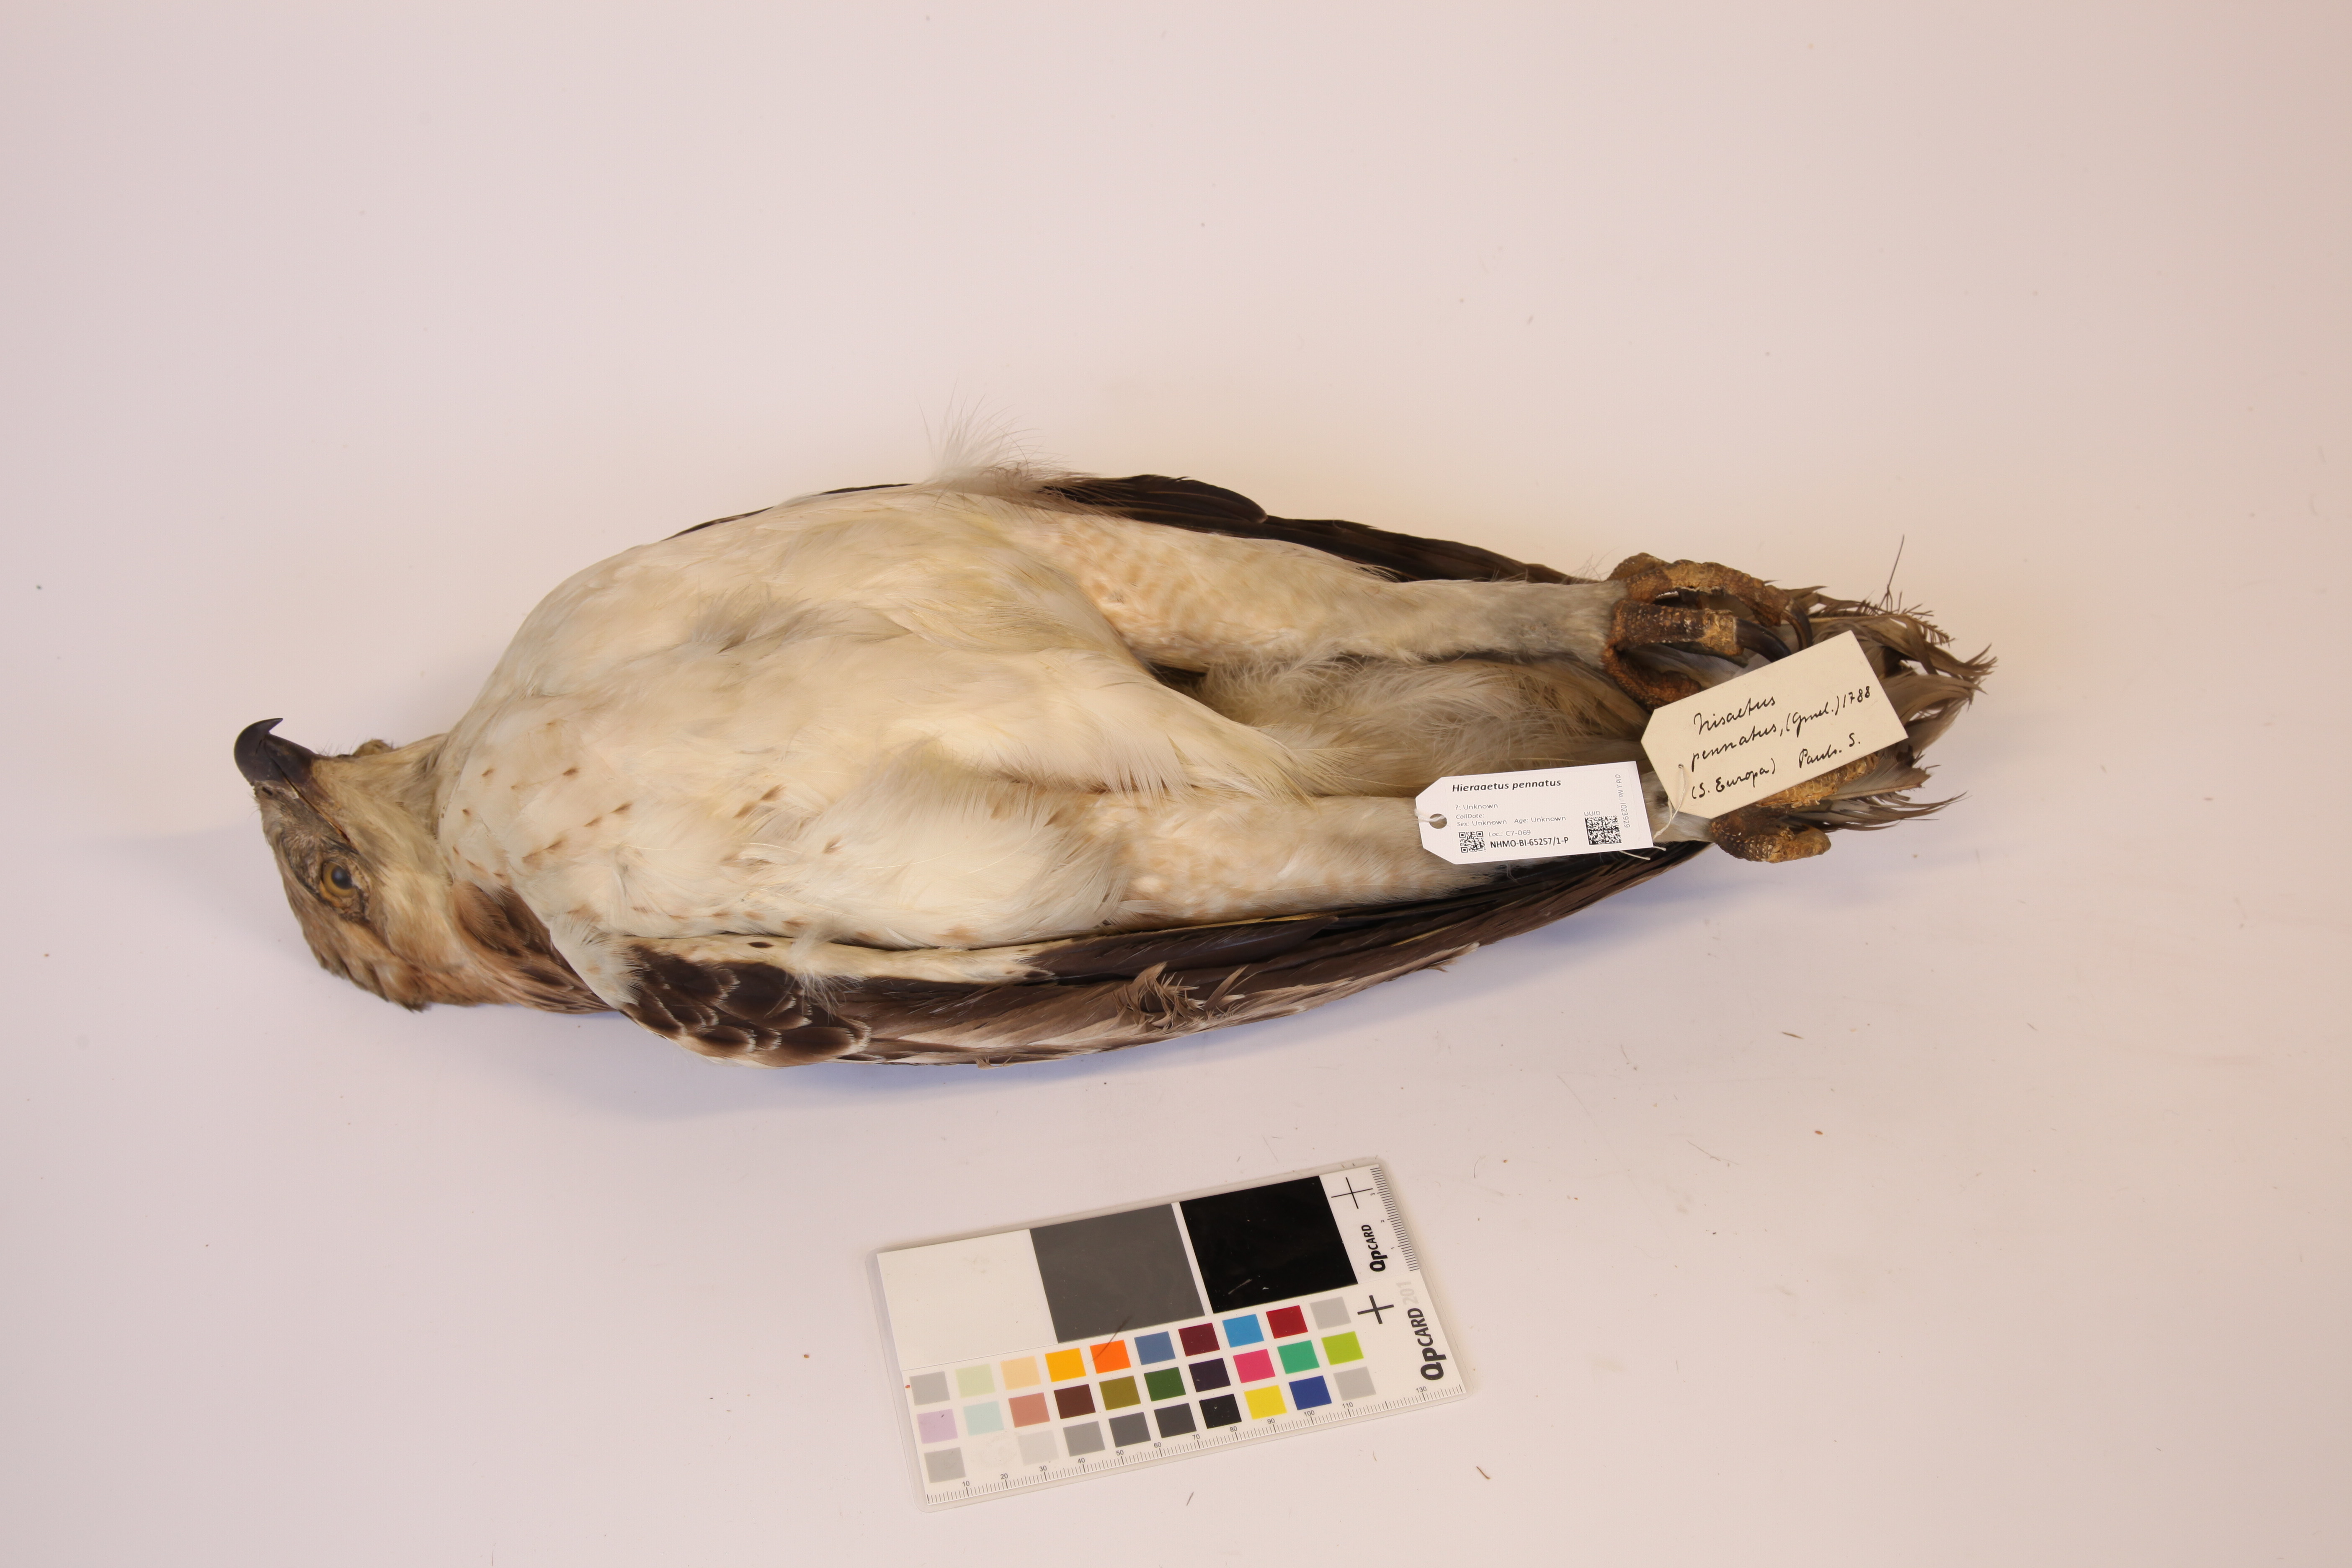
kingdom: Animalia
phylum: Chordata
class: Aves
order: Accipitriformes
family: Accipitridae
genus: Hieraaetus
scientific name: Hieraaetus pennatus
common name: Booted eagle
